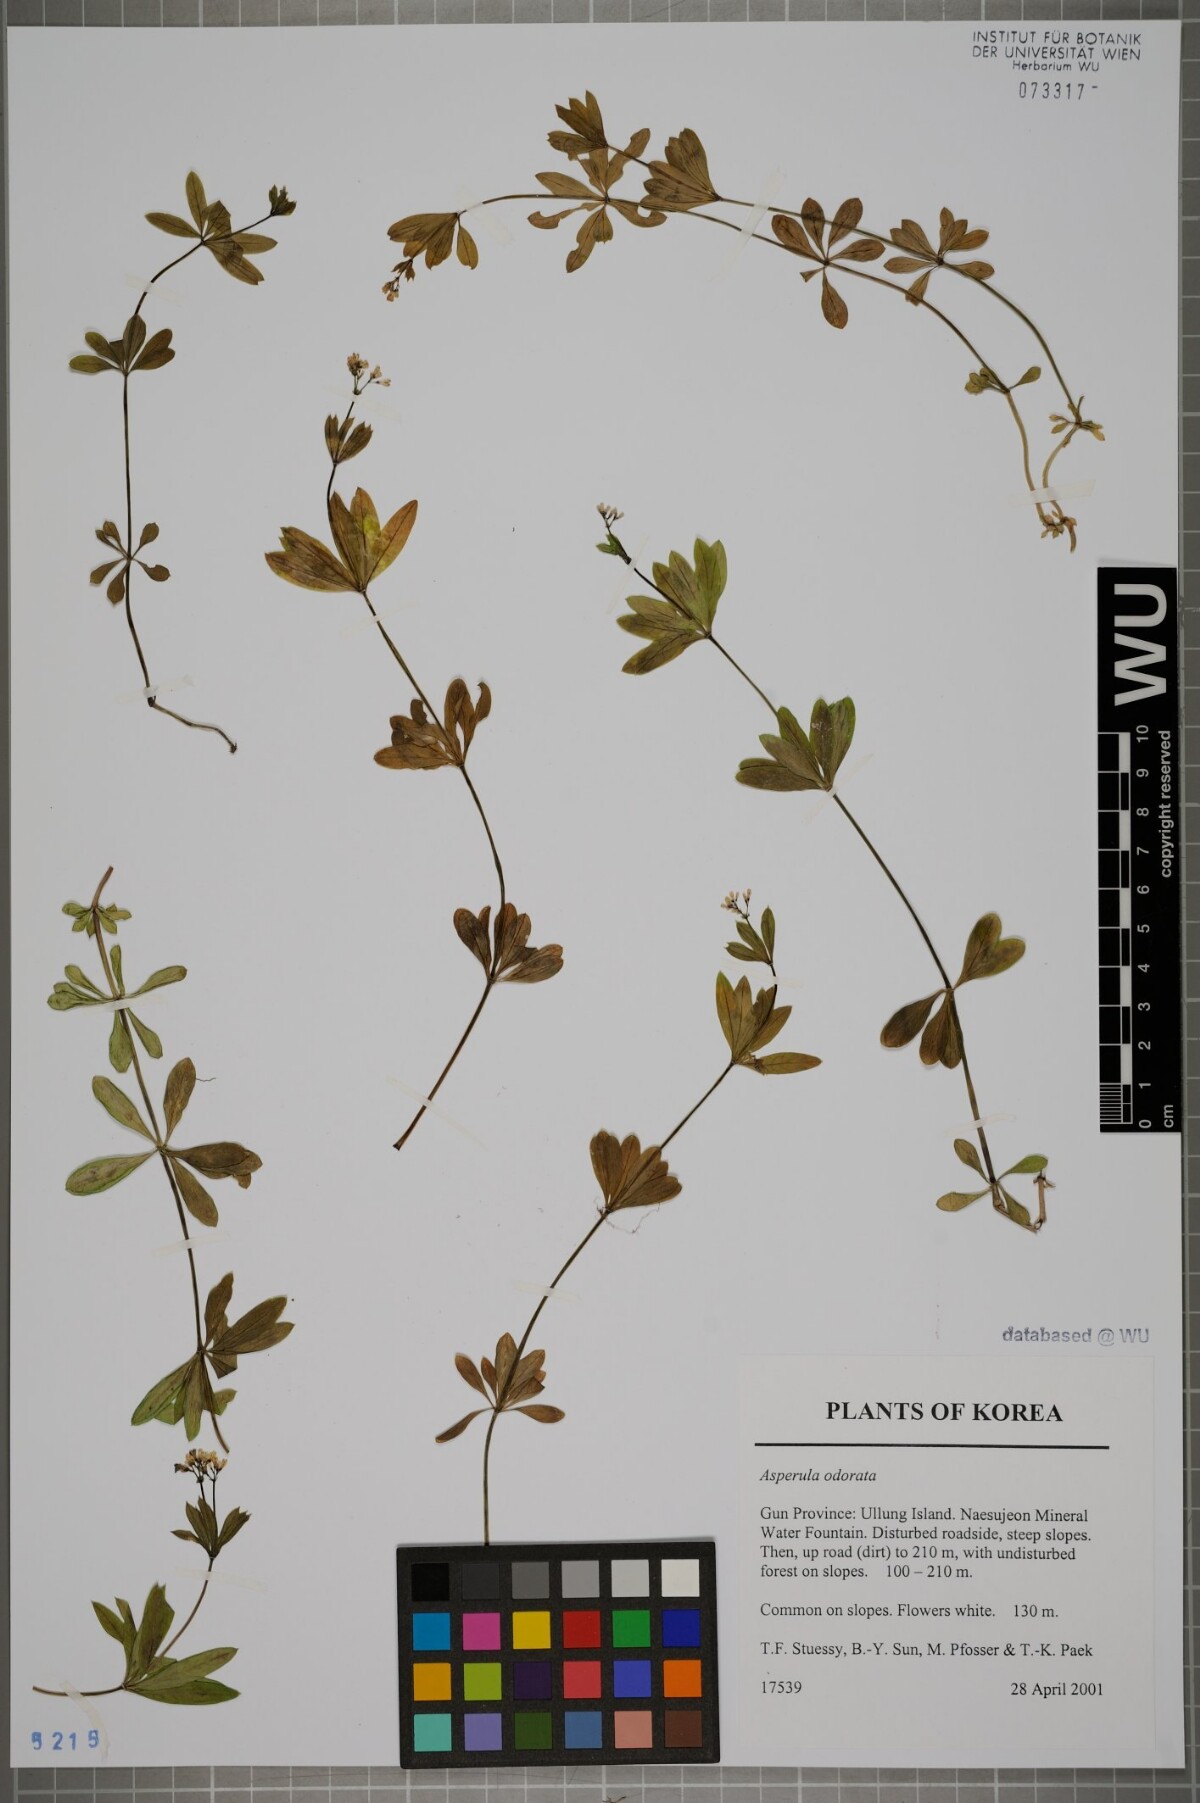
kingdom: Plantae
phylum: Tracheophyta
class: Magnoliopsida
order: Gentianales
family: Rubiaceae
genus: Galium
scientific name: Galium odoratum
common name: Sweet woodruff
